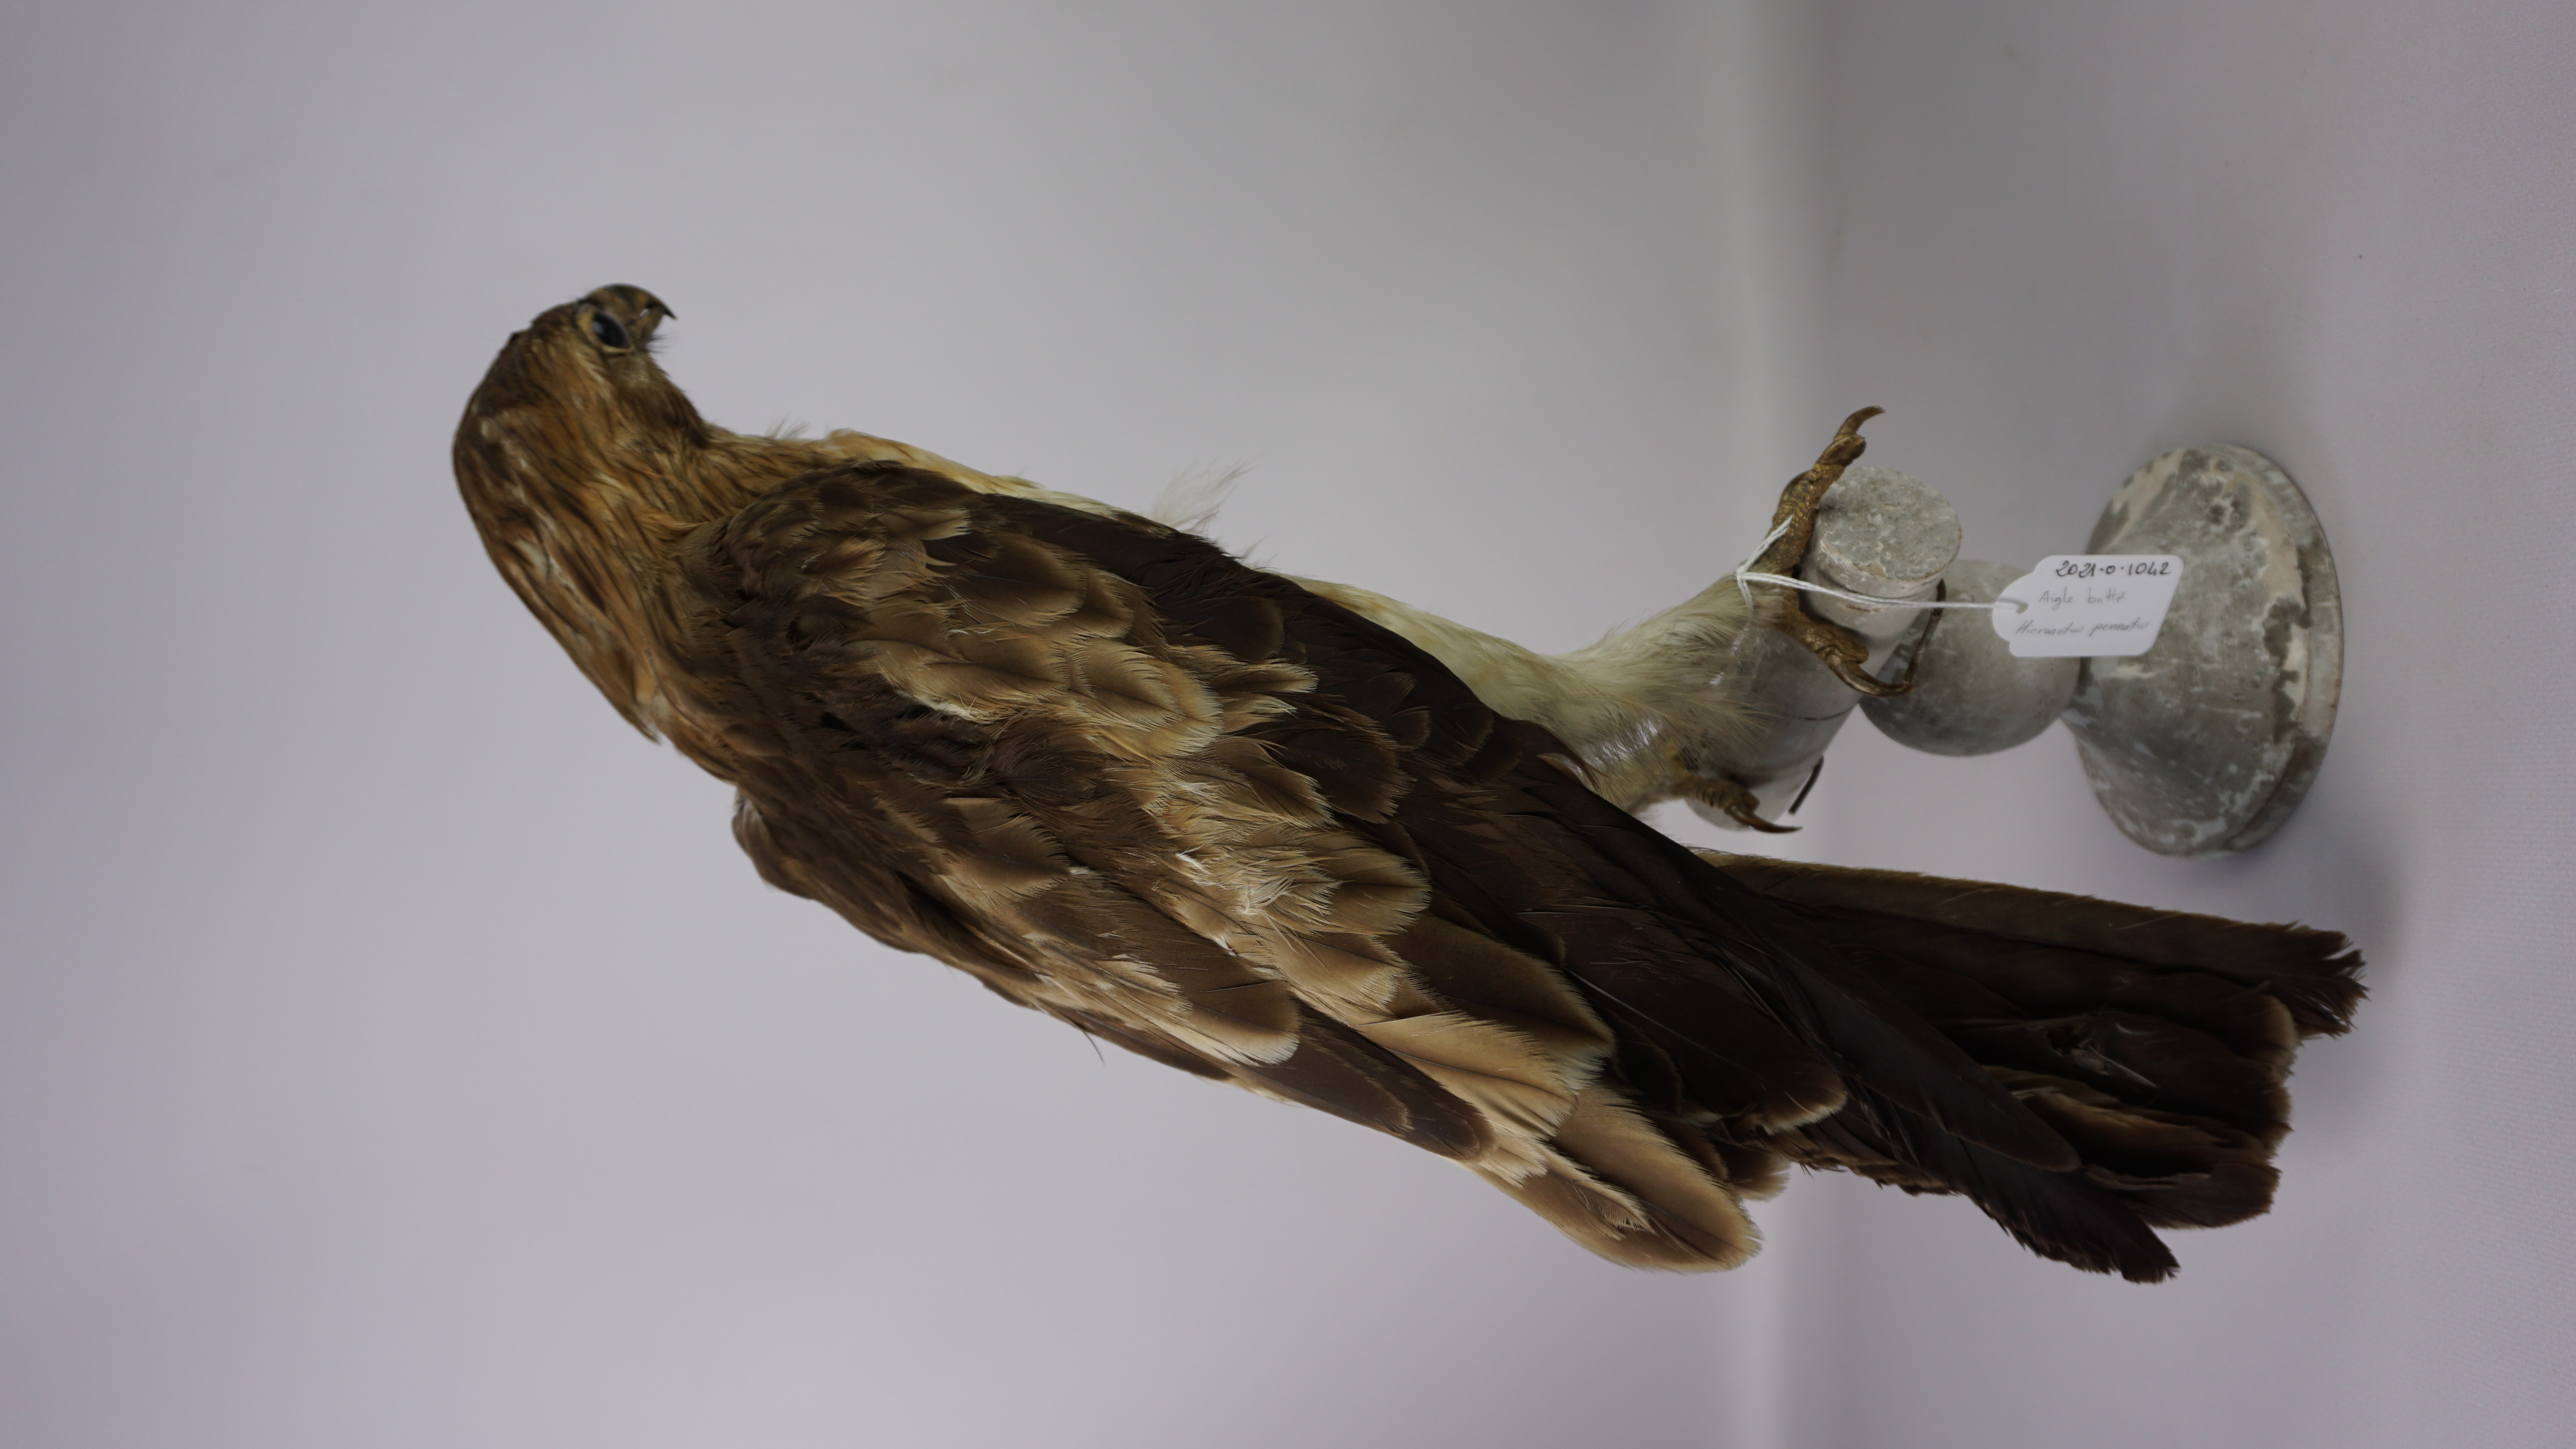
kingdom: Animalia
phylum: Chordata
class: Aves
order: Accipitriformes
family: Accipitridae
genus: Hieraaetus
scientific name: Hieraaetus pennatus
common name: Booted eagle
